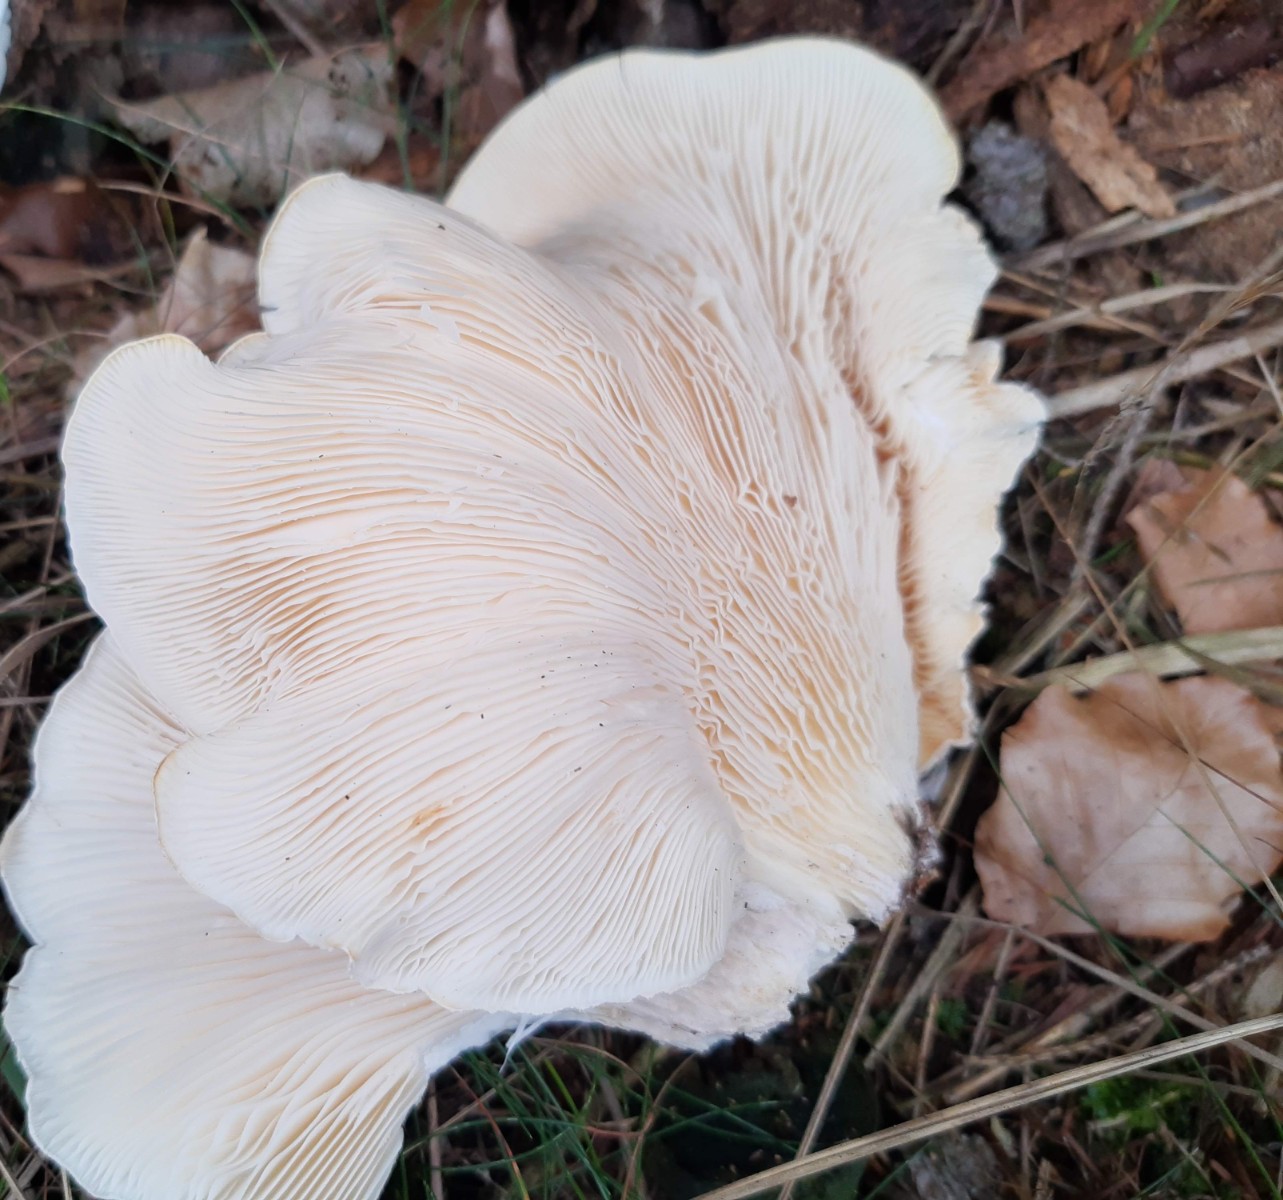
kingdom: Fungi
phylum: Basidiomycota
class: Agaricomycetes
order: Agaricales
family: Pleurotaceae
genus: Pleurotus
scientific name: Pleurotus dryinus
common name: korkagtig østershat
